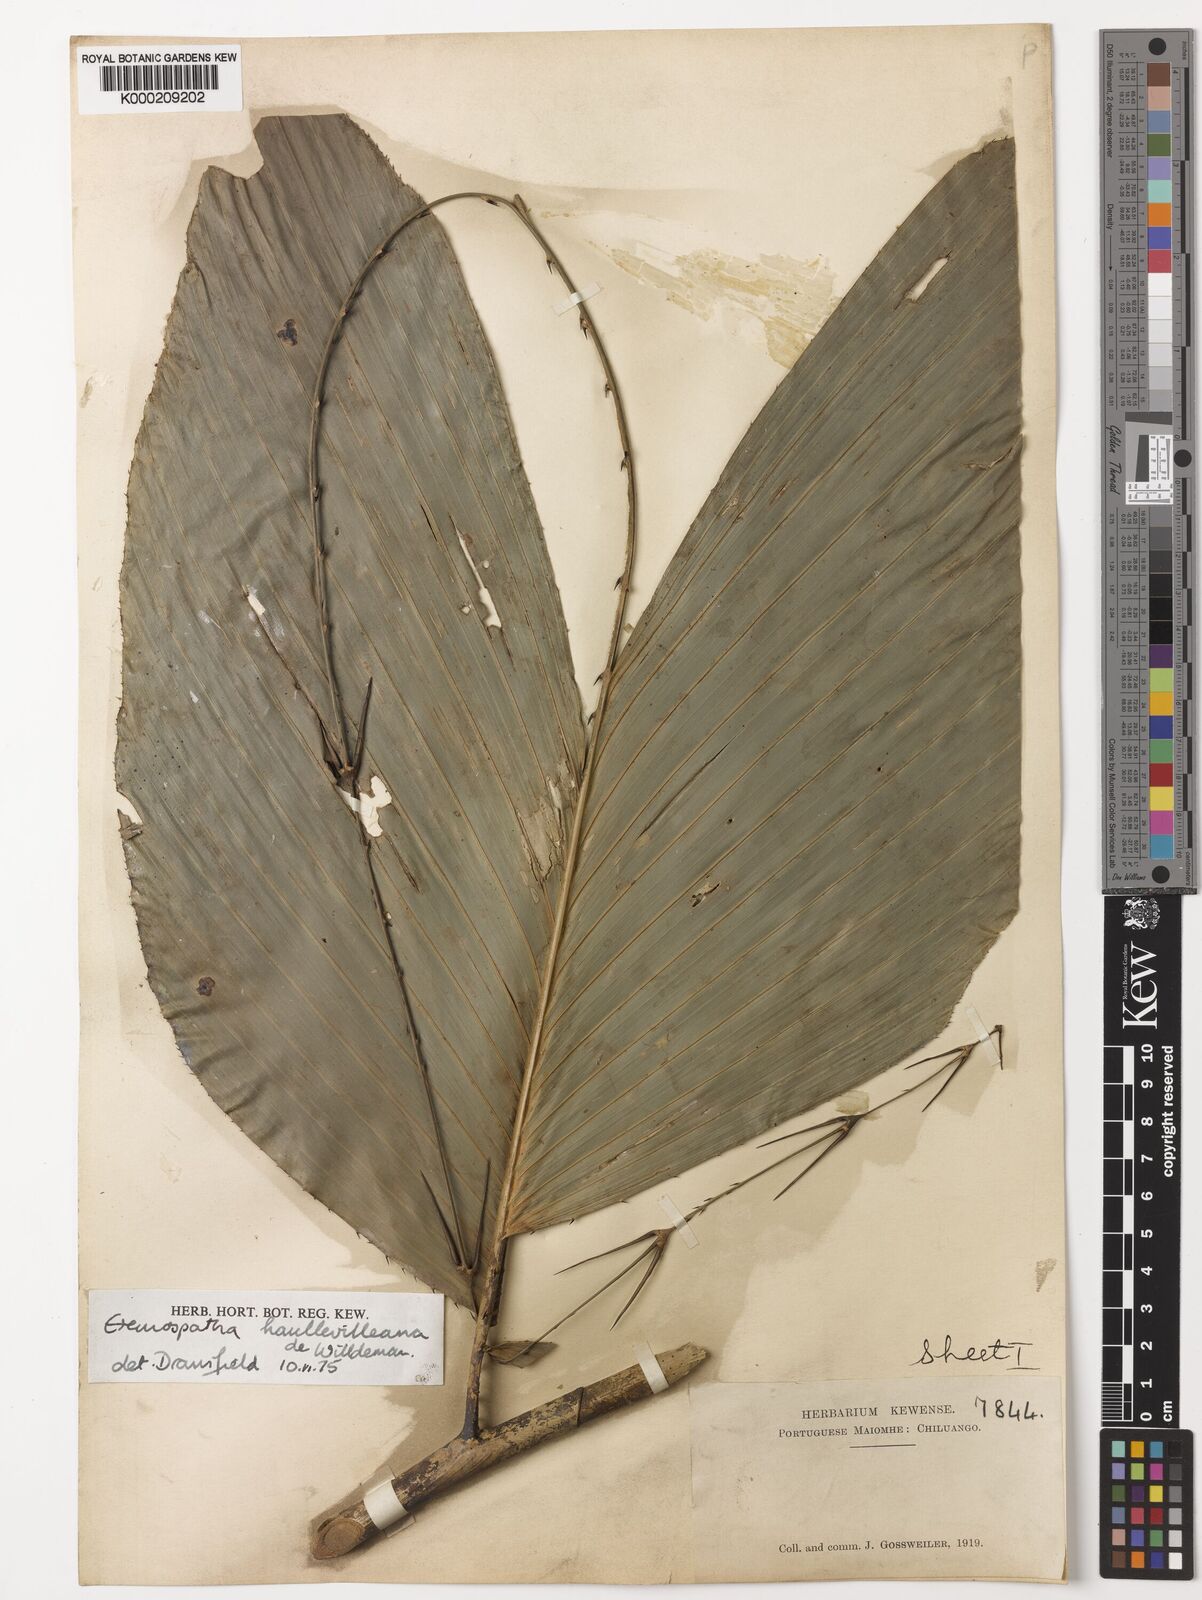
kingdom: Plantae
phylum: Tracheophyta
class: Liliopsida
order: Arecales
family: Arecaceae
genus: Eremospatha
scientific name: Eremospatha haullevilleana
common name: Rattan
